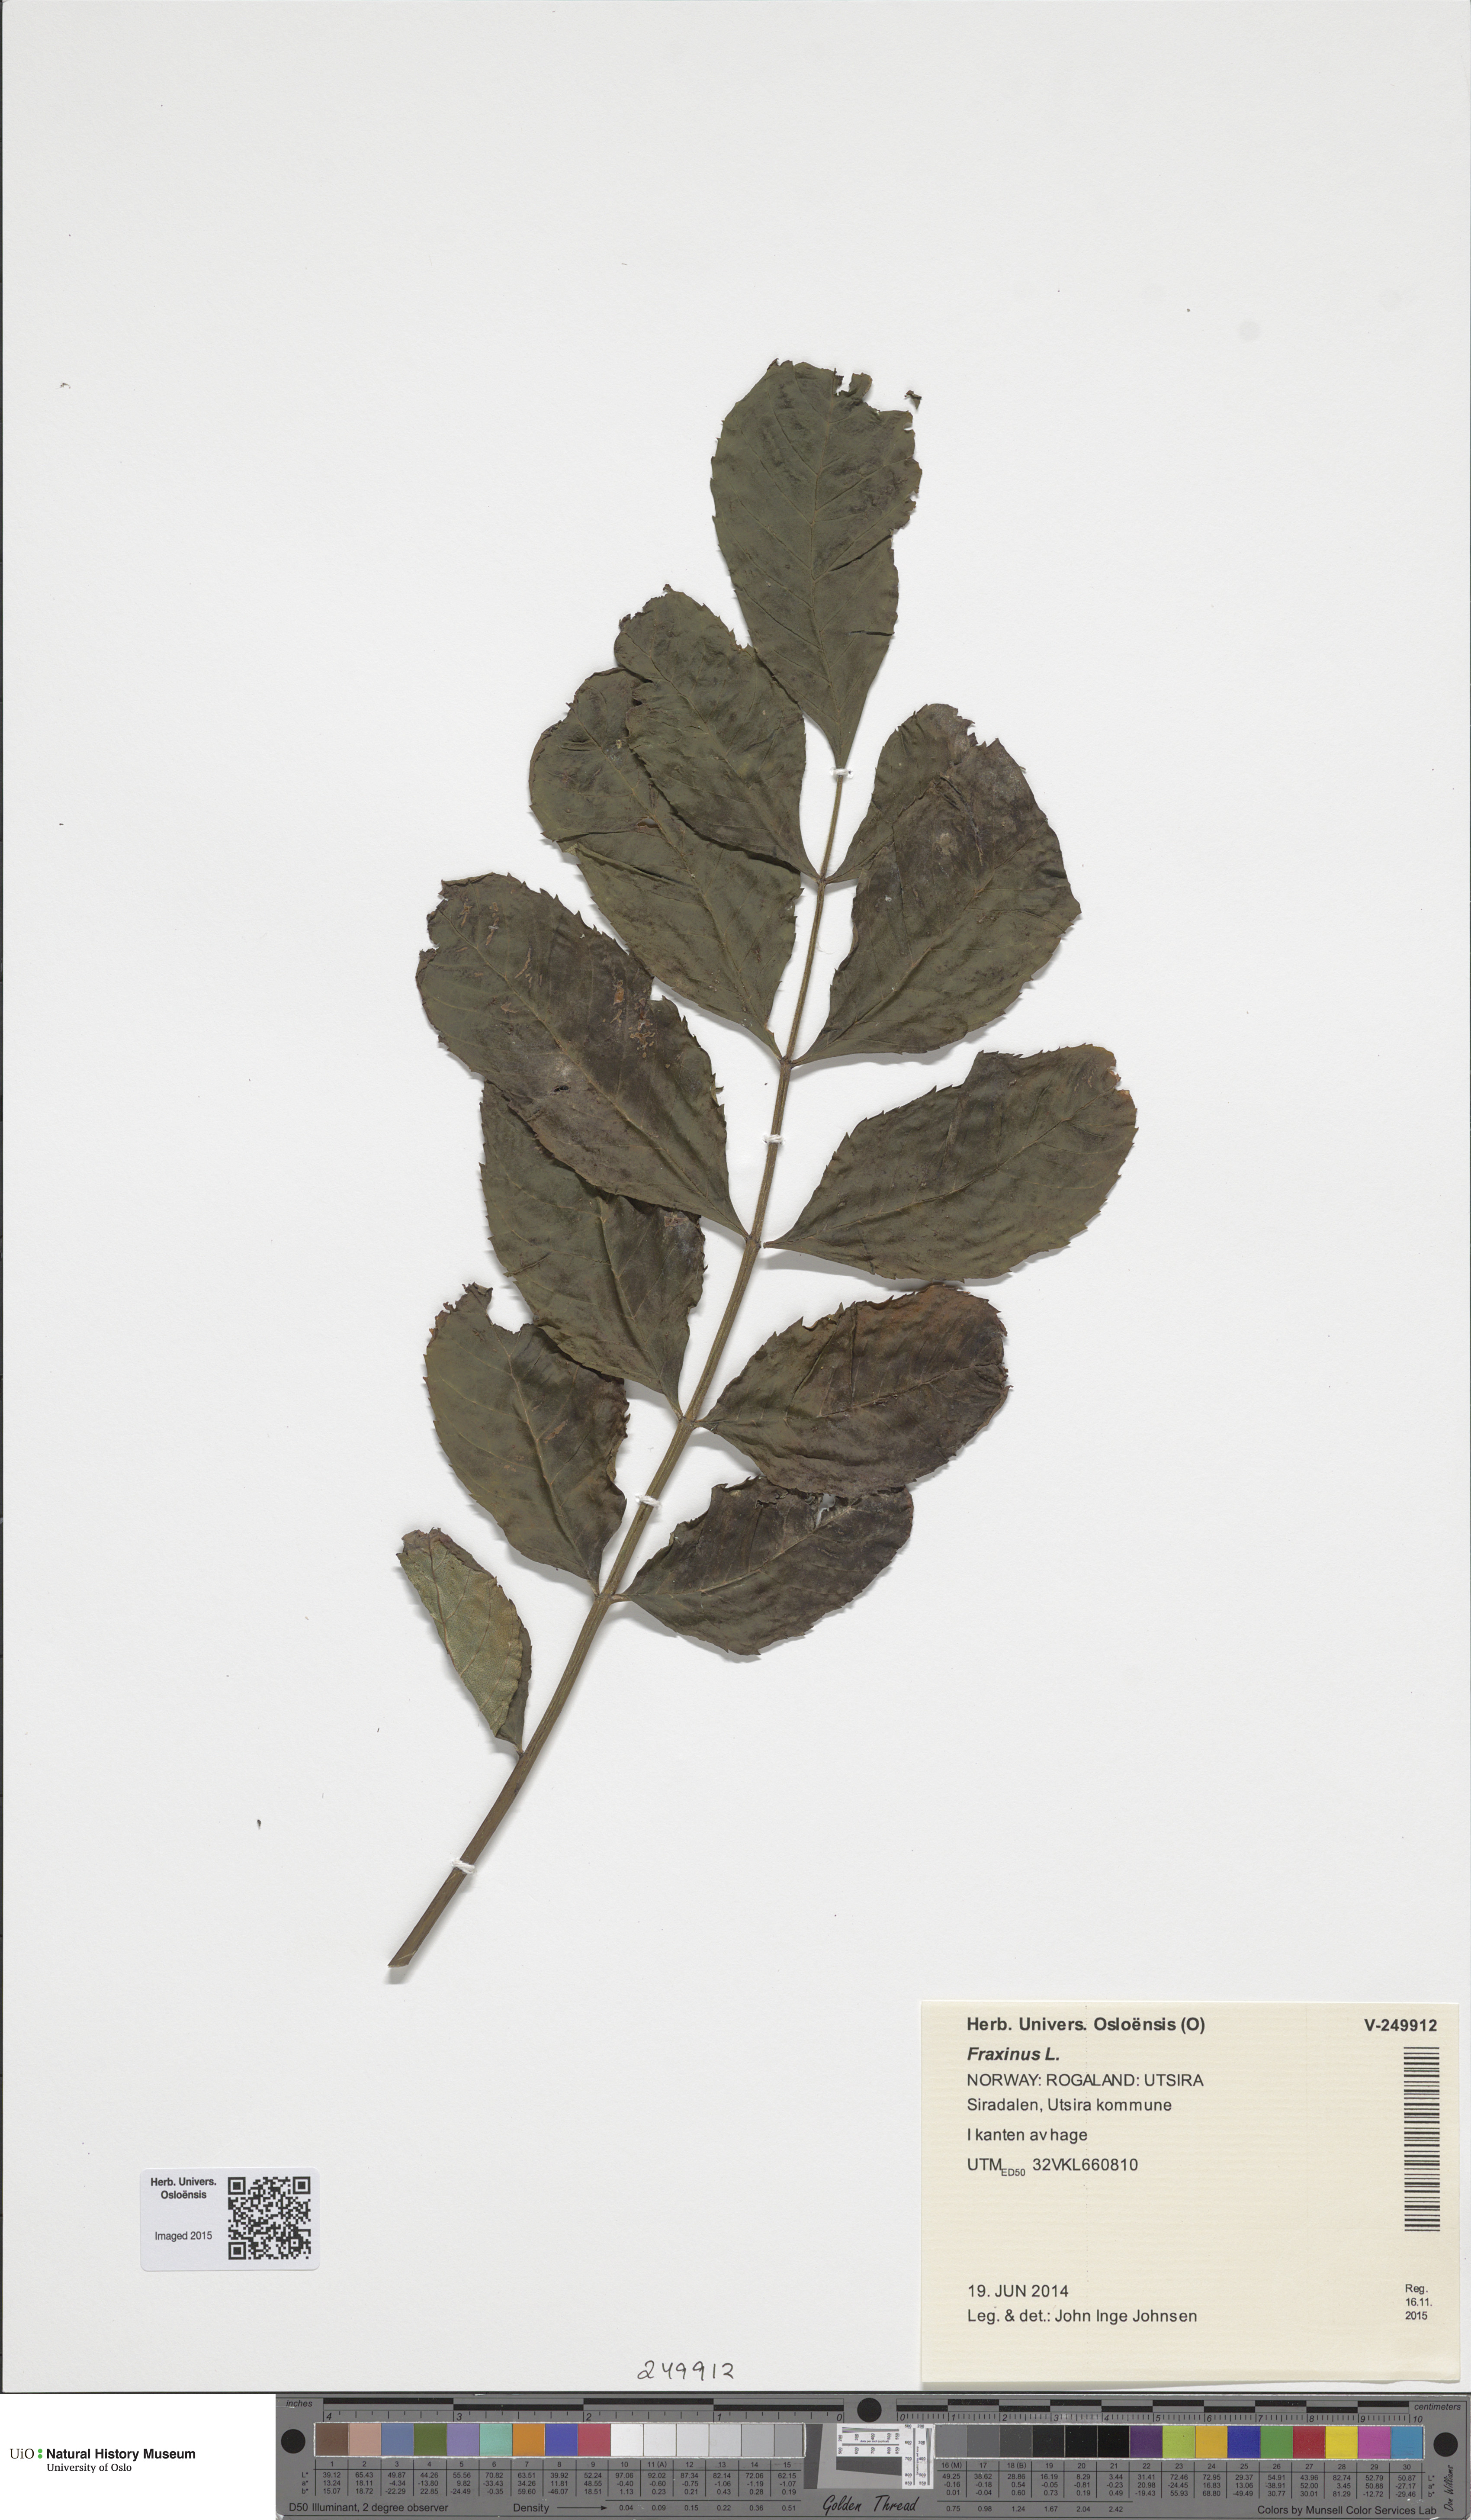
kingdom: Plantae
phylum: Tracheophyta
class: Magnoliopsida
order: Lamiales
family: Oleaceae
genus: Fraxinus
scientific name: Fraxinus excelsior
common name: European ash
